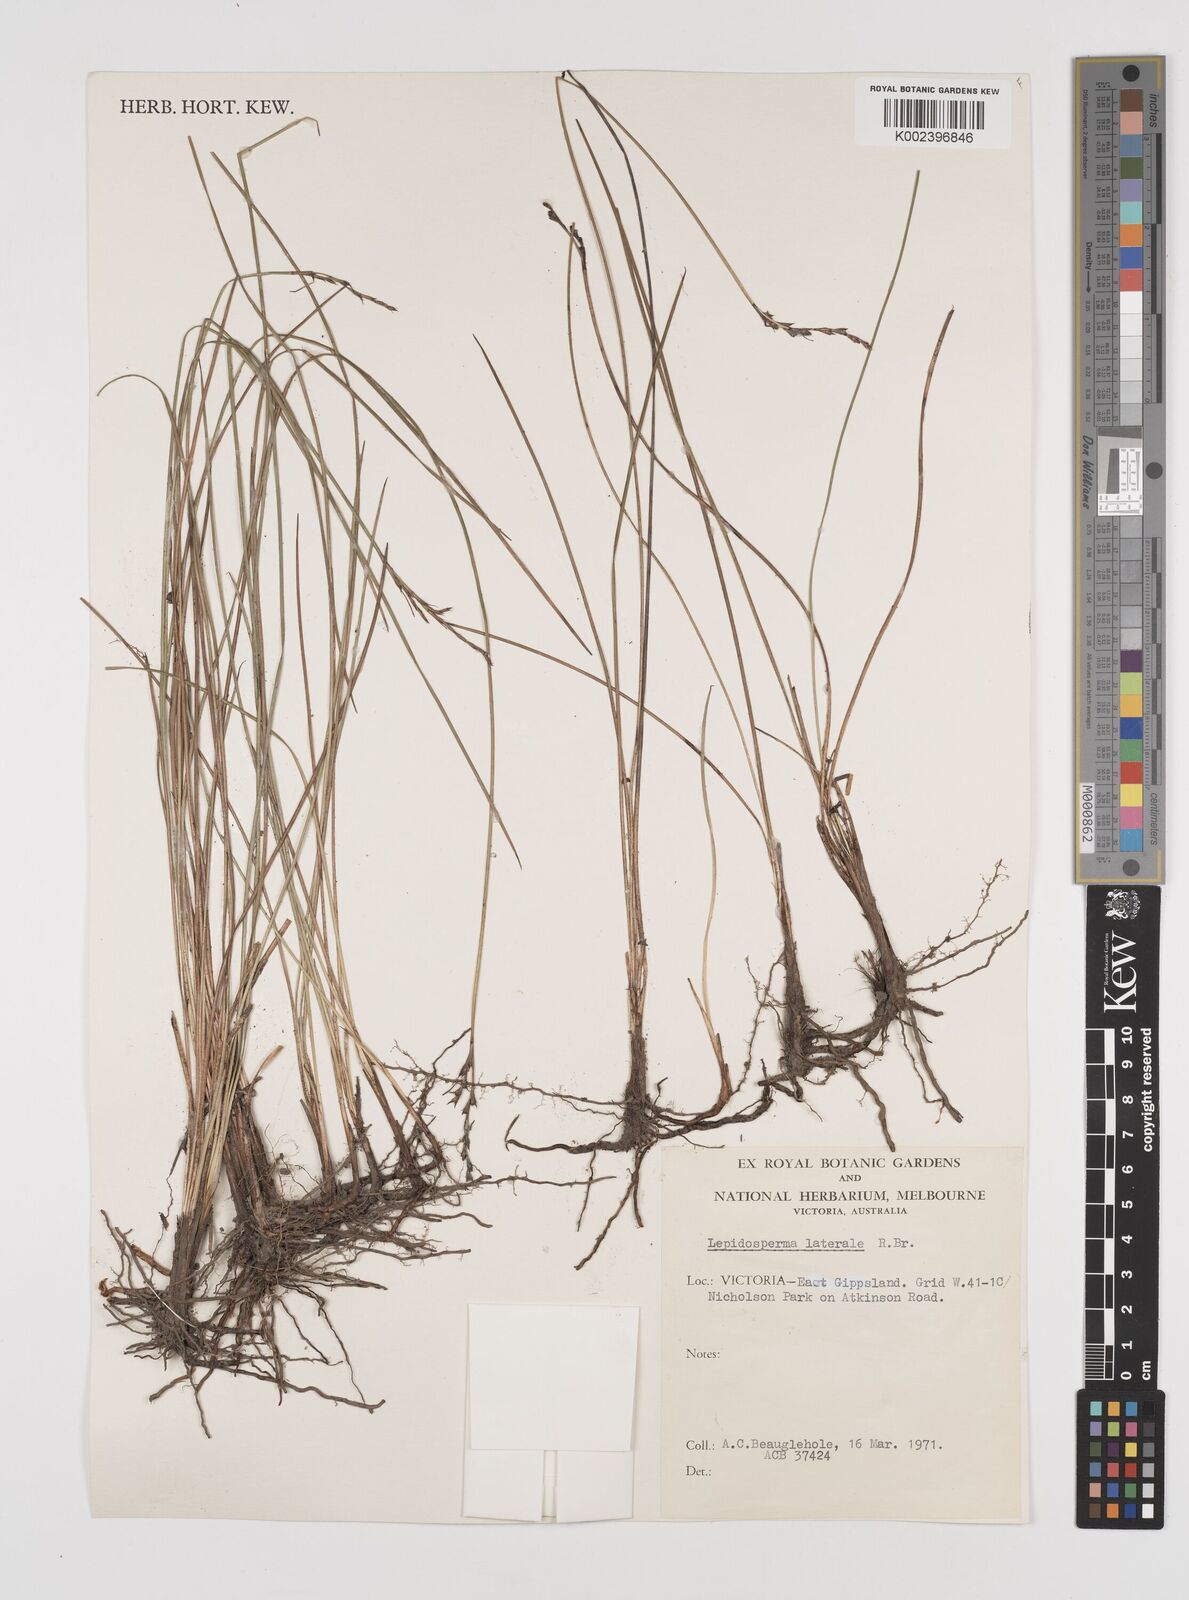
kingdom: Plantae
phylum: Tracheophyta
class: Liliopsida
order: Poales
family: Cyperaceae
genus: Lepidosperma
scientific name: Lepidosperma laterale
